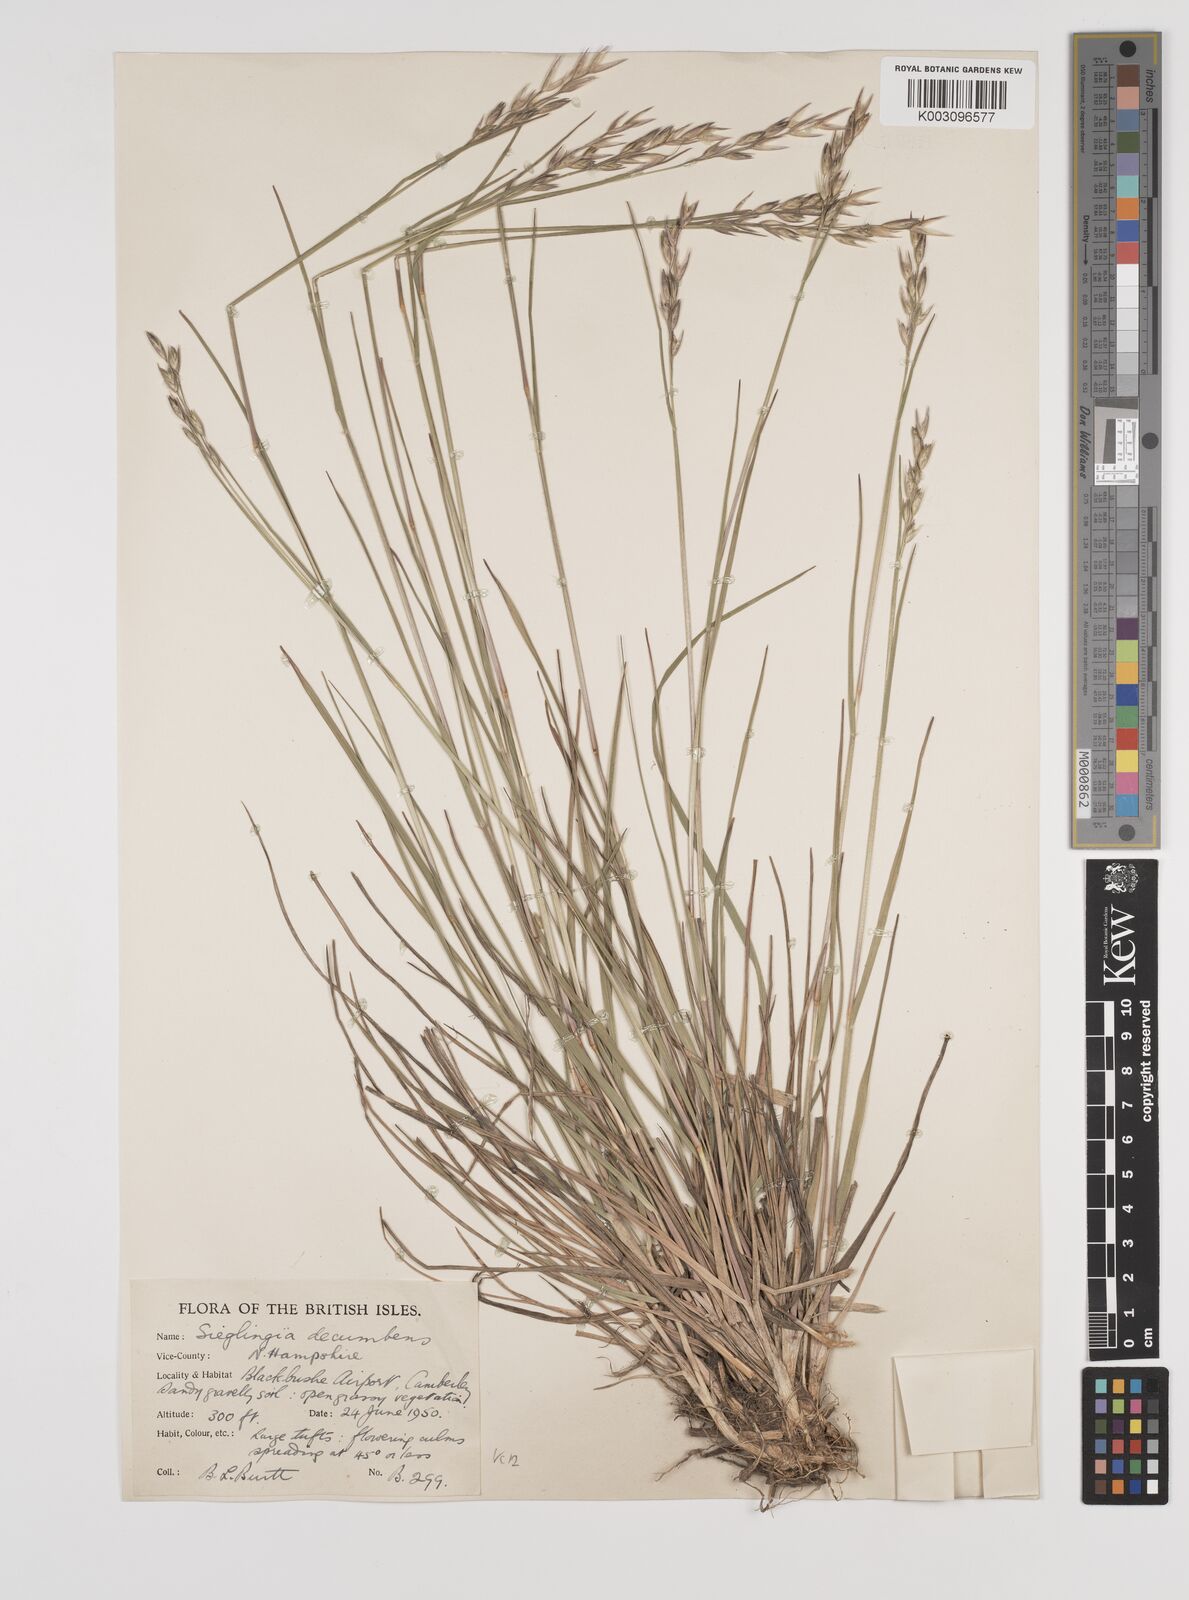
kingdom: Plantae
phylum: Tracheophyta
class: Liliopsida
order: Poales
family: Poaceae
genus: Danthonia
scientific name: Danthonia decumbens
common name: Common heathgrass
